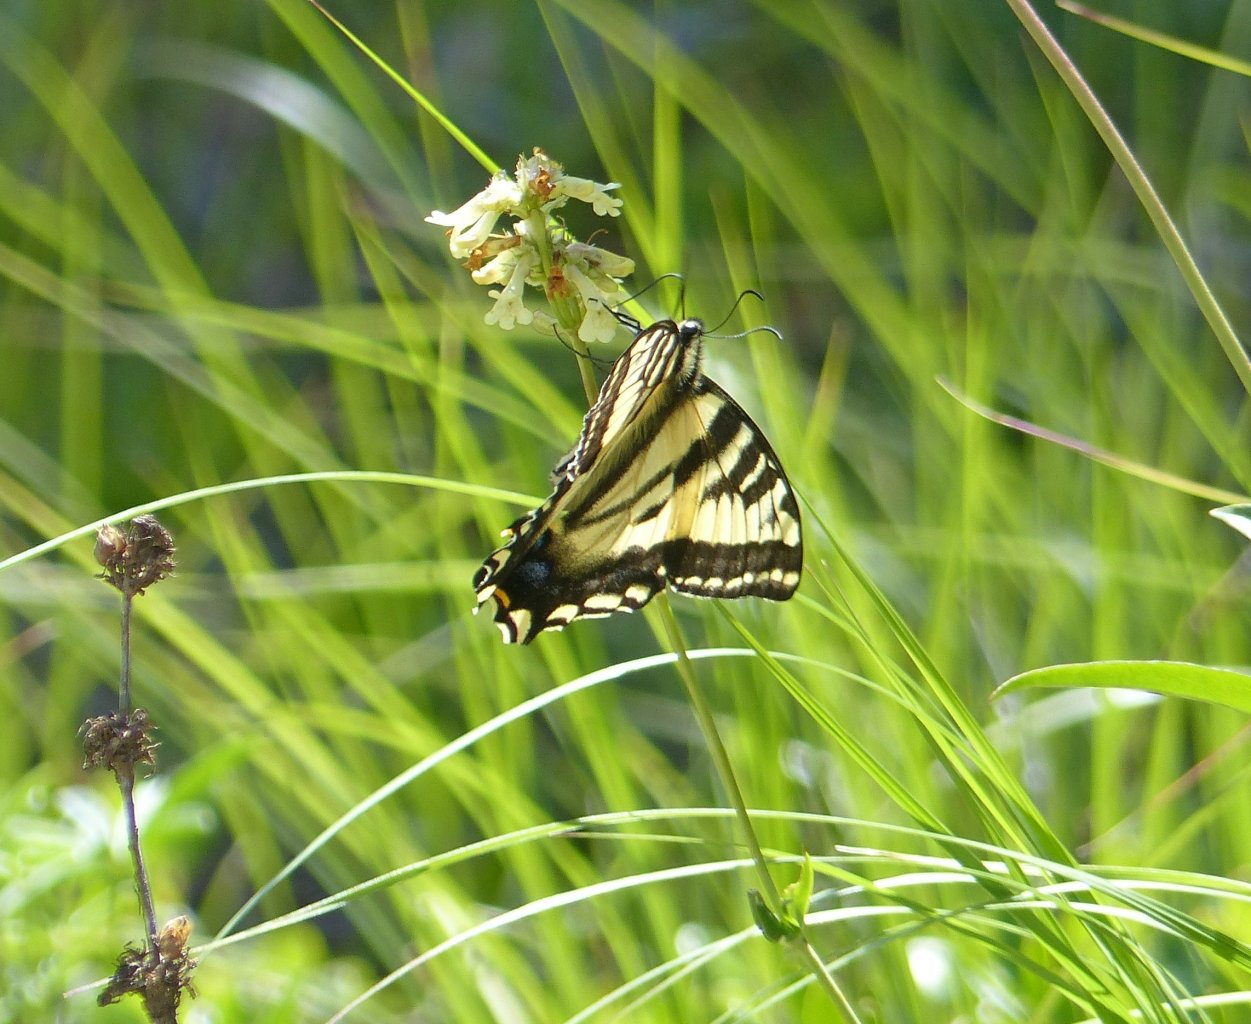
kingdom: Animalia
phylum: Arthropoda
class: Insecta
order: Lepidoptera
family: Papilionidae
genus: Pterourus
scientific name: Pterourus rutulus
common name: Western Tiger Swallowtail
